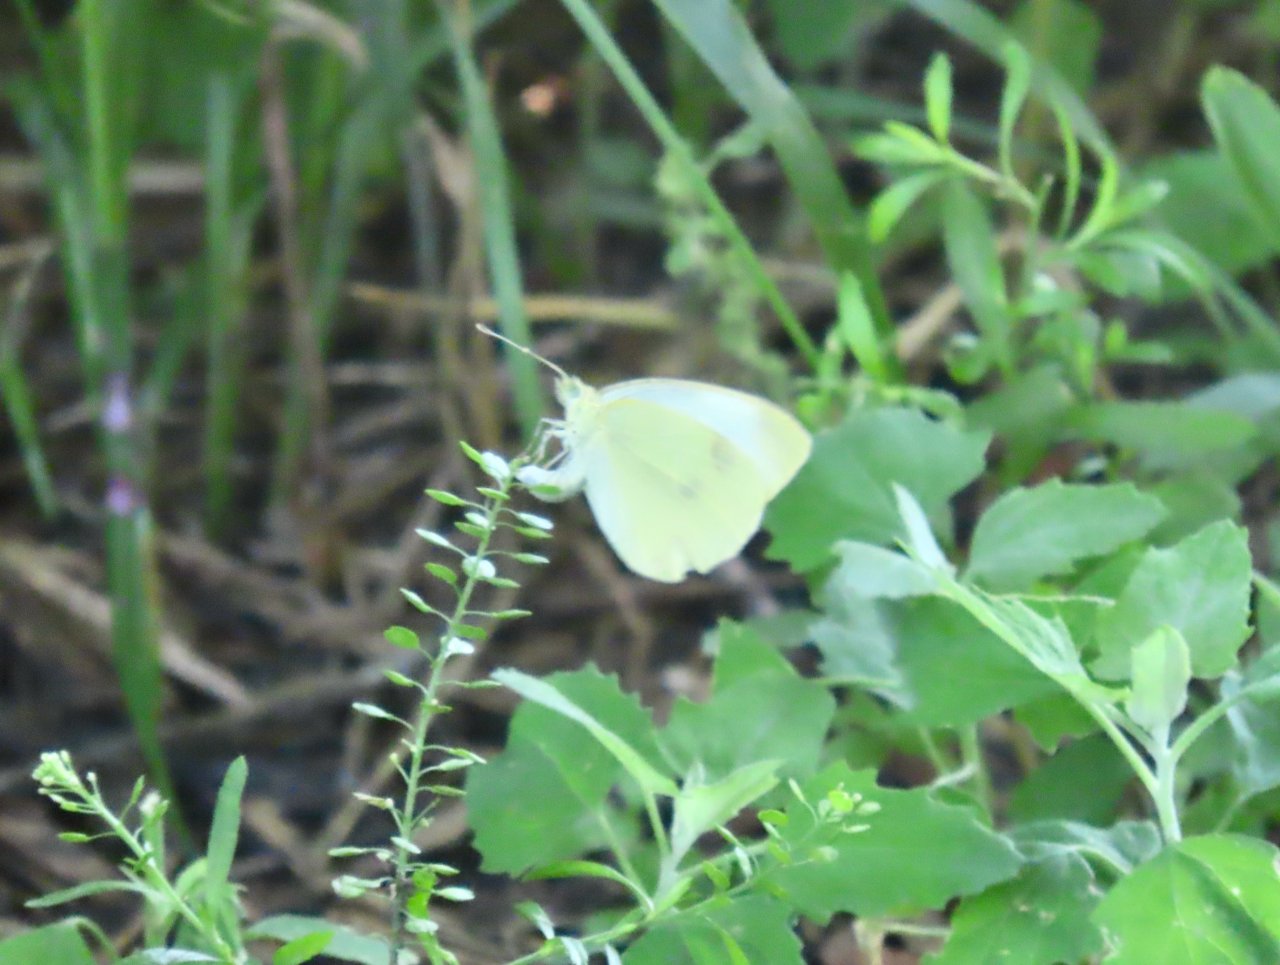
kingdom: Animalia
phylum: Arthropoda
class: Insecta
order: Lepidoptera
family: Pieridae
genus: Pieris
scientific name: Pieris rapae
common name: Cabbage White
